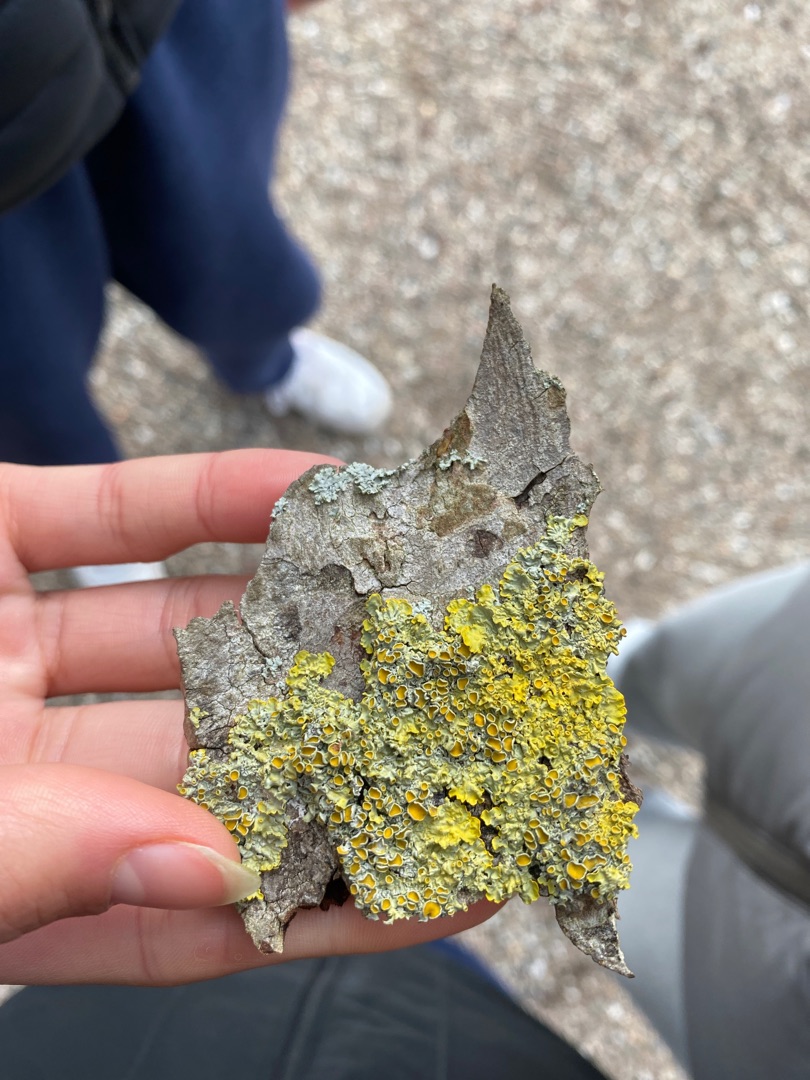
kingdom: Fungi
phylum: Ascomycota
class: Lecanoromycetes
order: Teloschistales
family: Teloschistaceae
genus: Xanthoria
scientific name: Xanthoria parietina
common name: Almindelig væggelav
